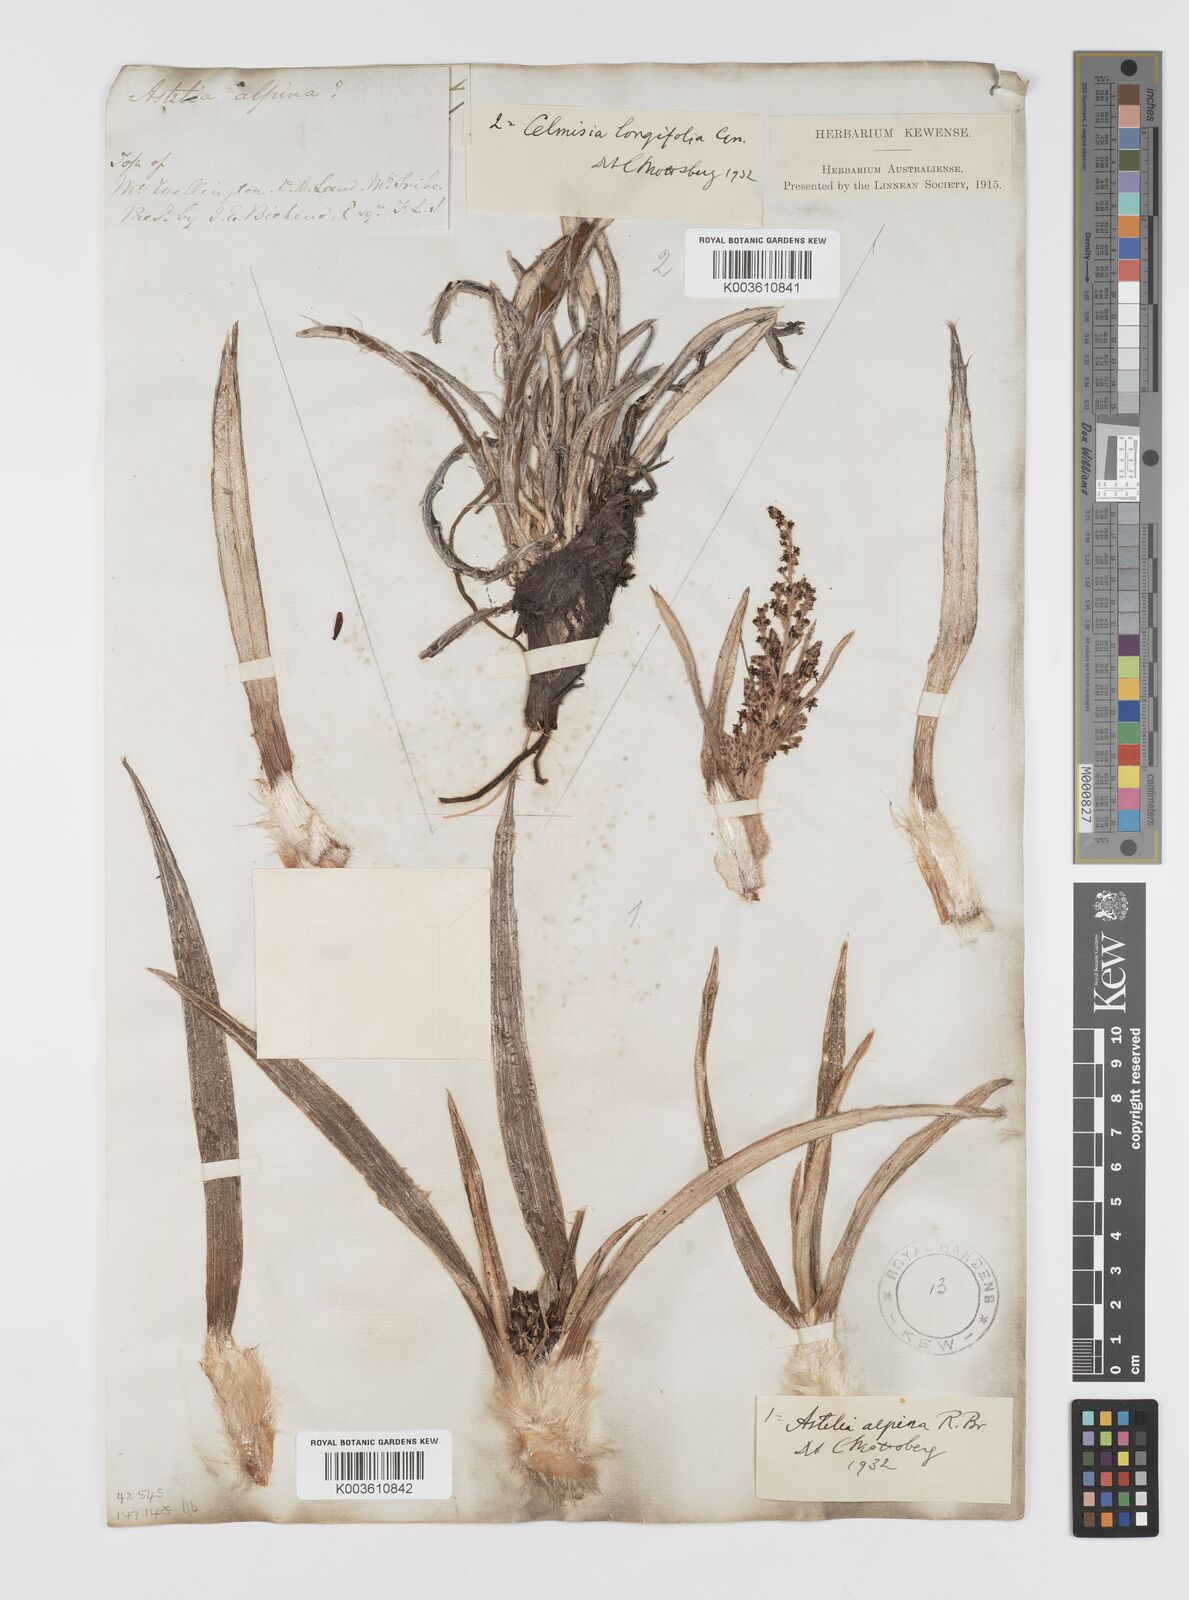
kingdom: Plantae
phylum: Tracheophyta
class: Liliopsida
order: Asparagales
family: Asteliaceae
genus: Astelia
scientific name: Astelia alpina
